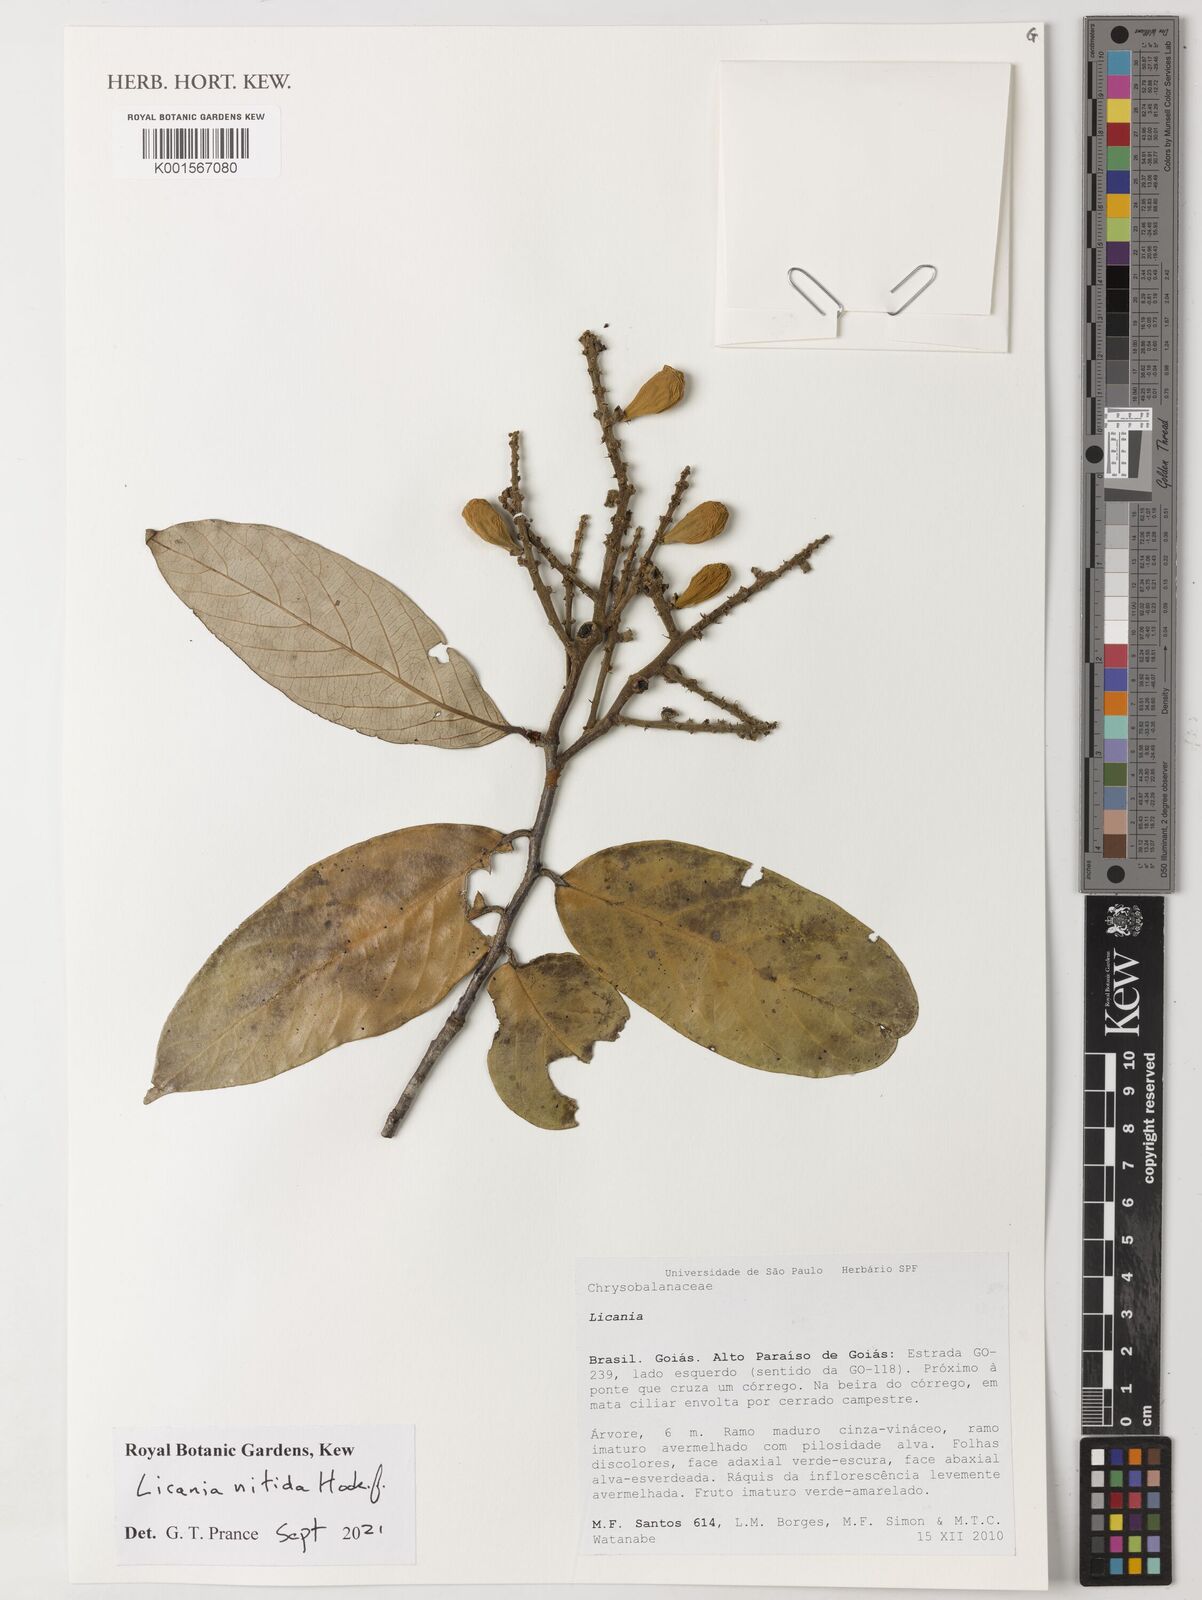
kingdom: Plantae
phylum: Tracheophyta
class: Magnoliopsida
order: Malpighiales
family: Chrysobalanaceae
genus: Licania
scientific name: Licania nitida
